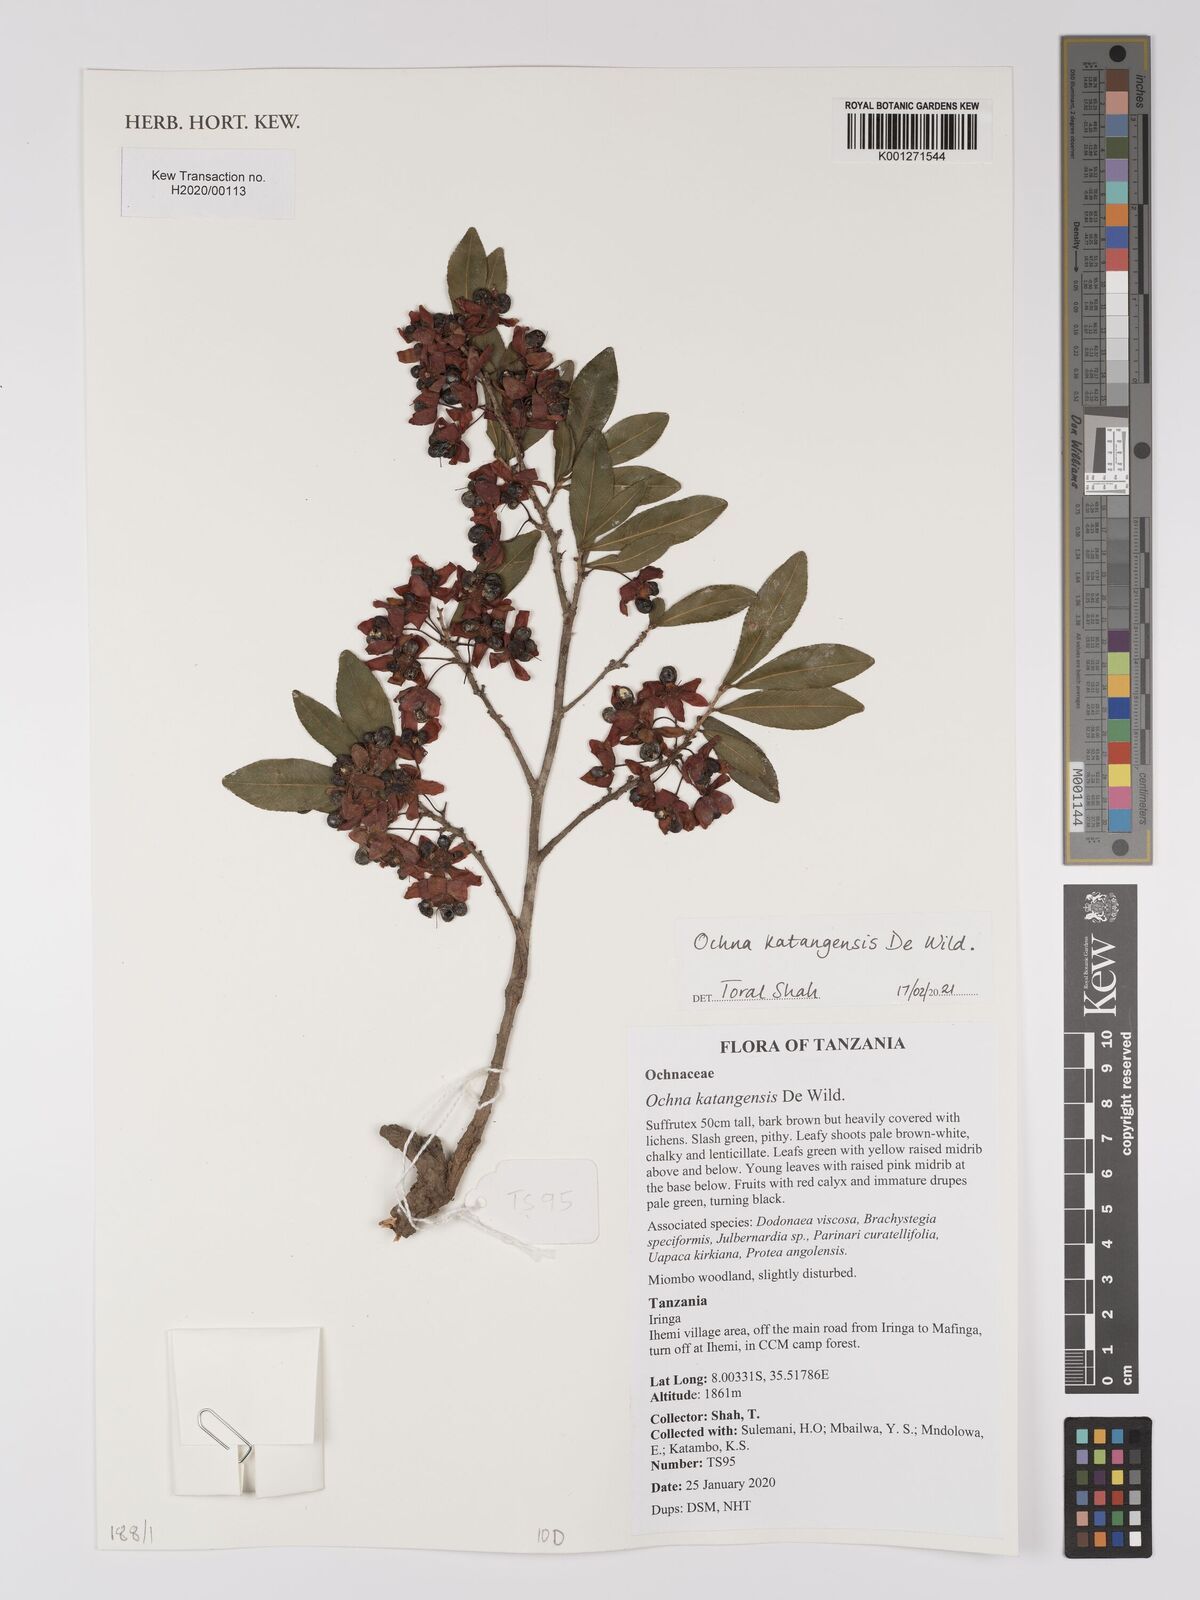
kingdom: Plantae
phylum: Tracheophyta
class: Magnoliopsida
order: Malpighiales
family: Ochnaceae
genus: Ochna
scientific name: Ochna katangensis
